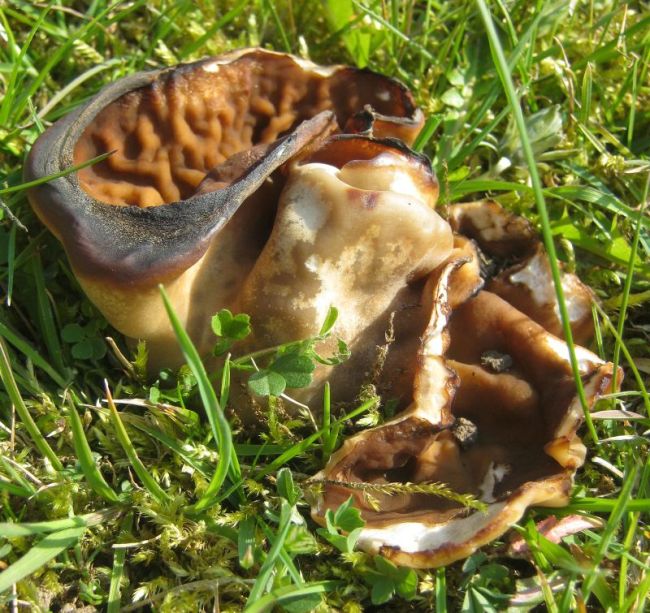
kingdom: Fungi
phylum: Ascomycota
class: Pezizomycetes
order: Pezizales
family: Morchellaceae
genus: Disciotis
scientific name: Disciotis venosa
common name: klor-bægermorkel
